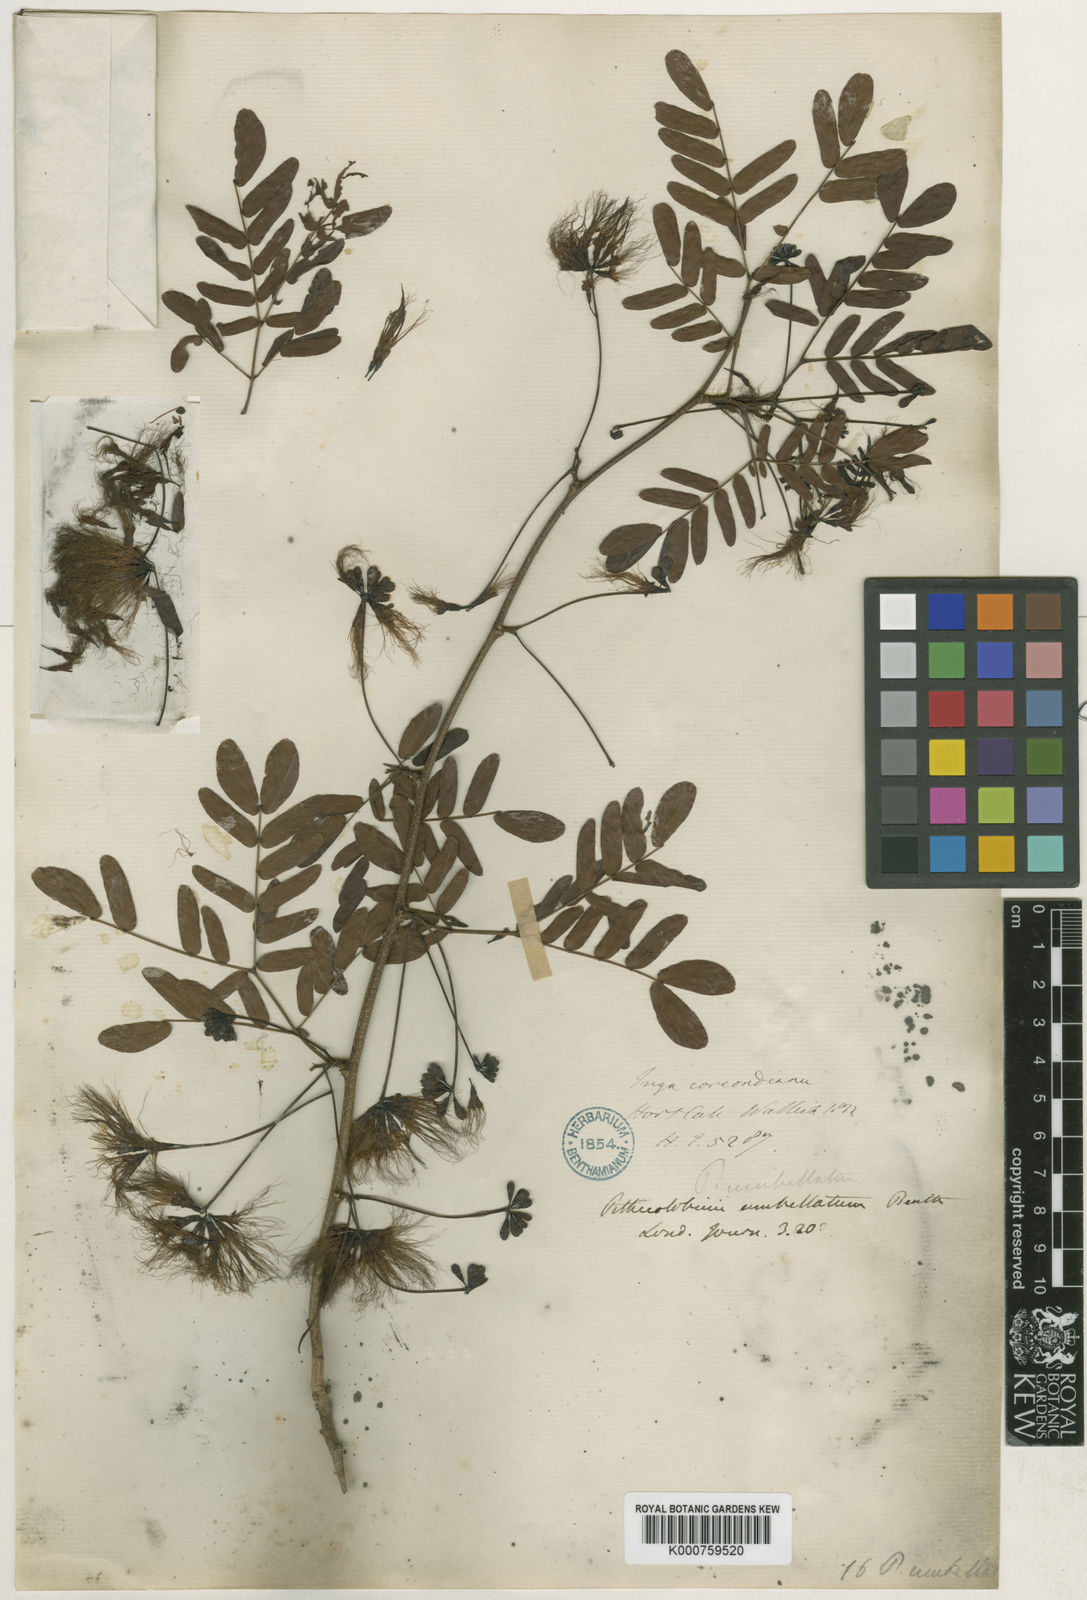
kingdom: Plantae
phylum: Tracheophyta
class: Magnoliopsida
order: Fabales
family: Fabaceae
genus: Cathormion
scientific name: Cathormion umbellatum
